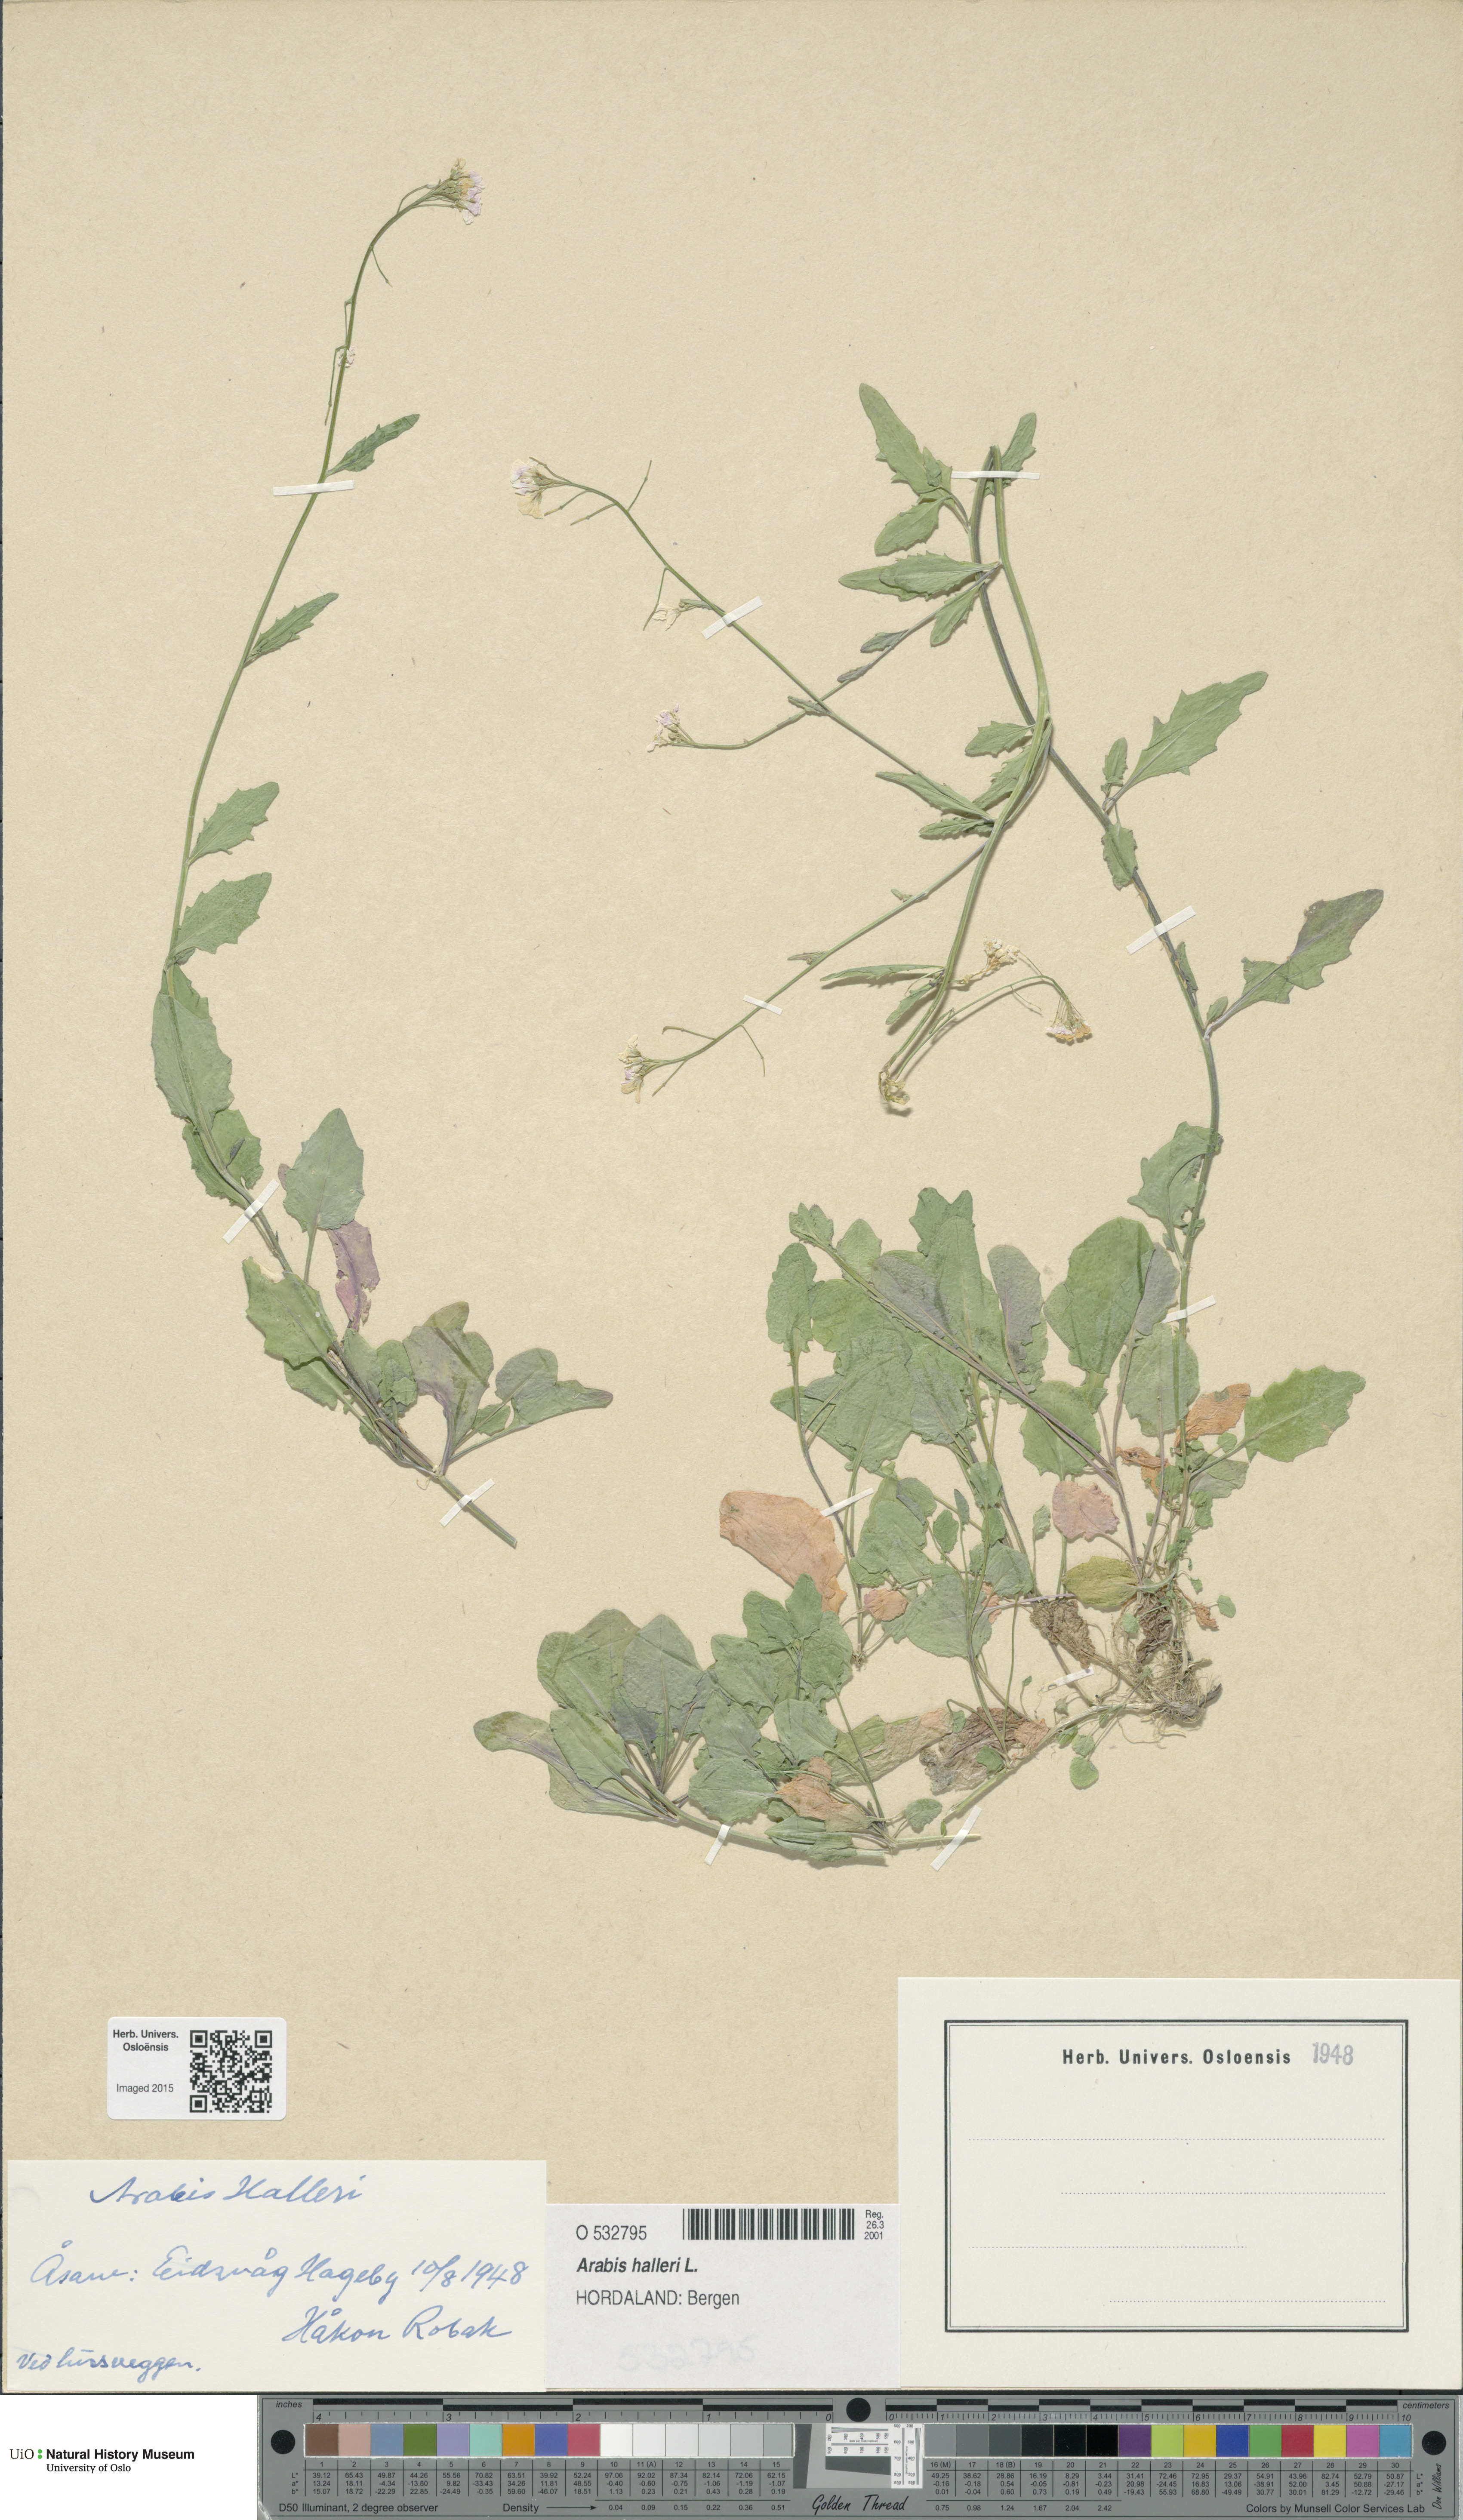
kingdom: Plantae
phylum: Tracheophyta
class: Magnoliopsida
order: Brassicales
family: Brassicaceae
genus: Arabidopsis
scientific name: Arabidopsis halleri
